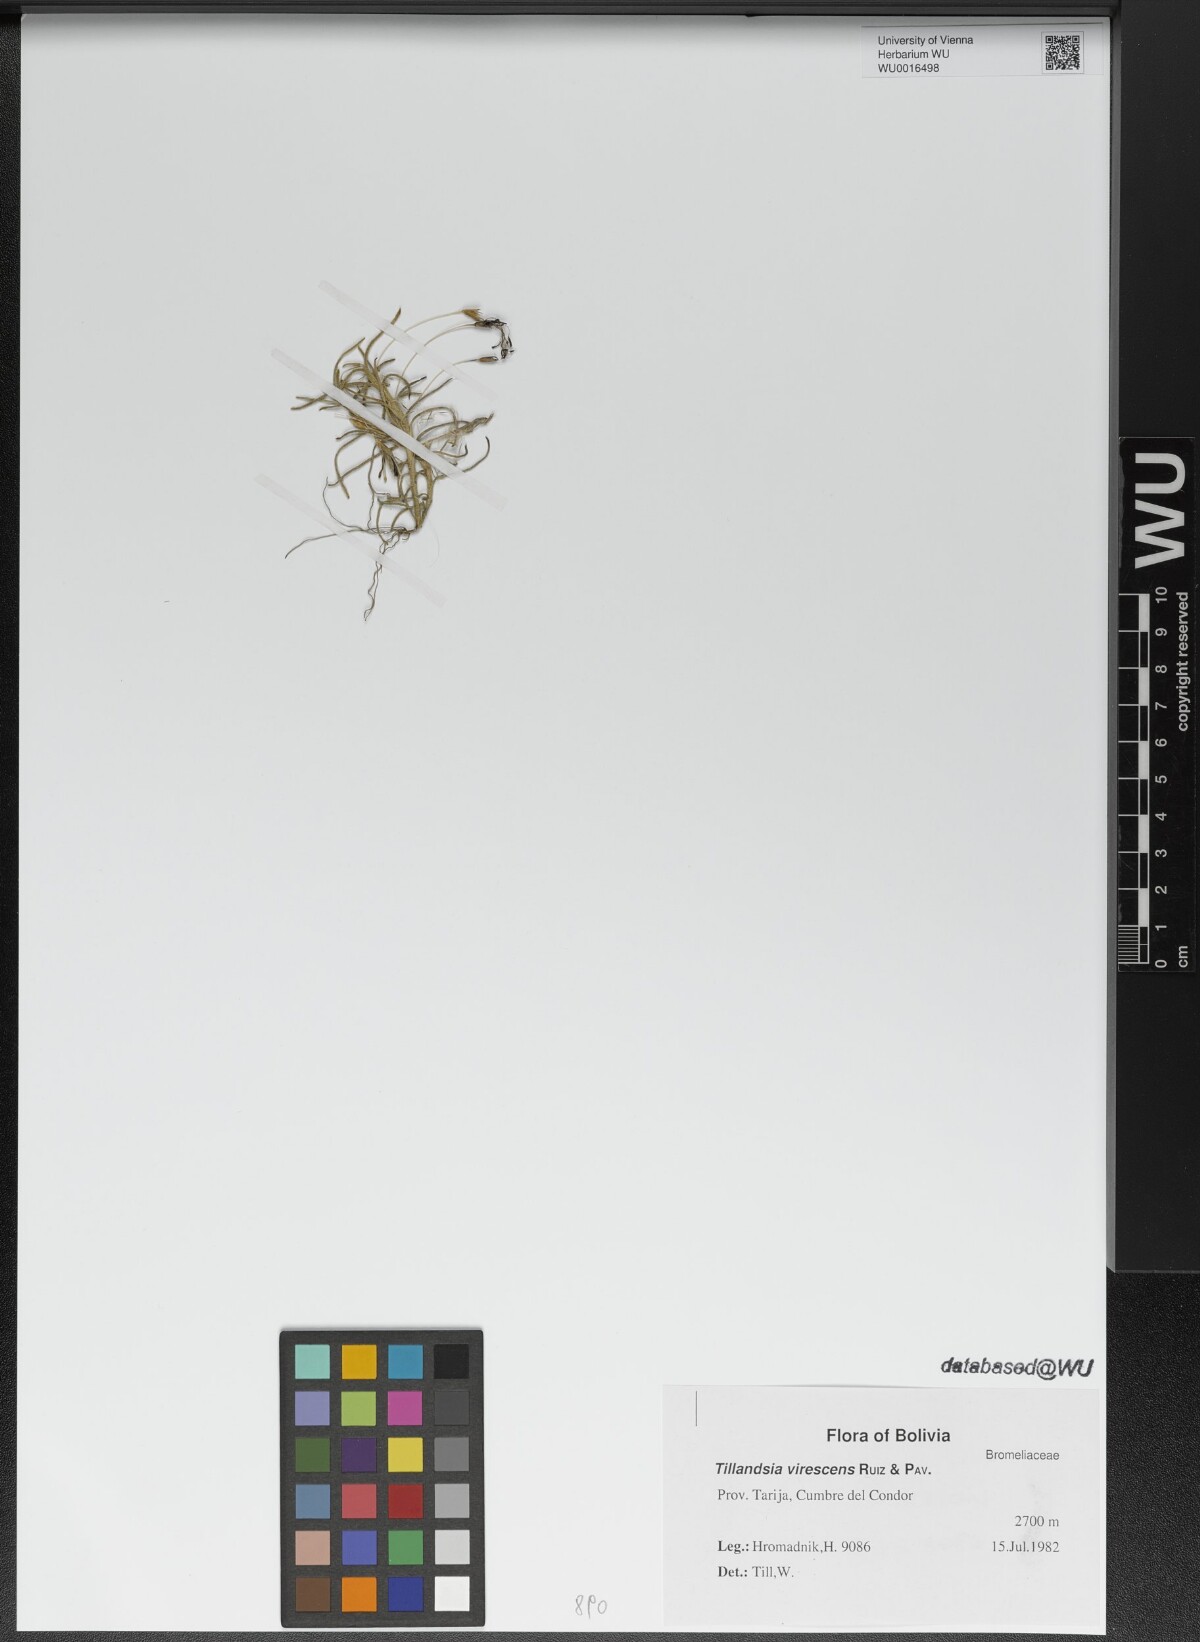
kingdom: Plantae
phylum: Tracheophyta
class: Liliopsida
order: Poales
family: Bromeliaceae
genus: Tillandsia
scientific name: Tillandsia virescens
